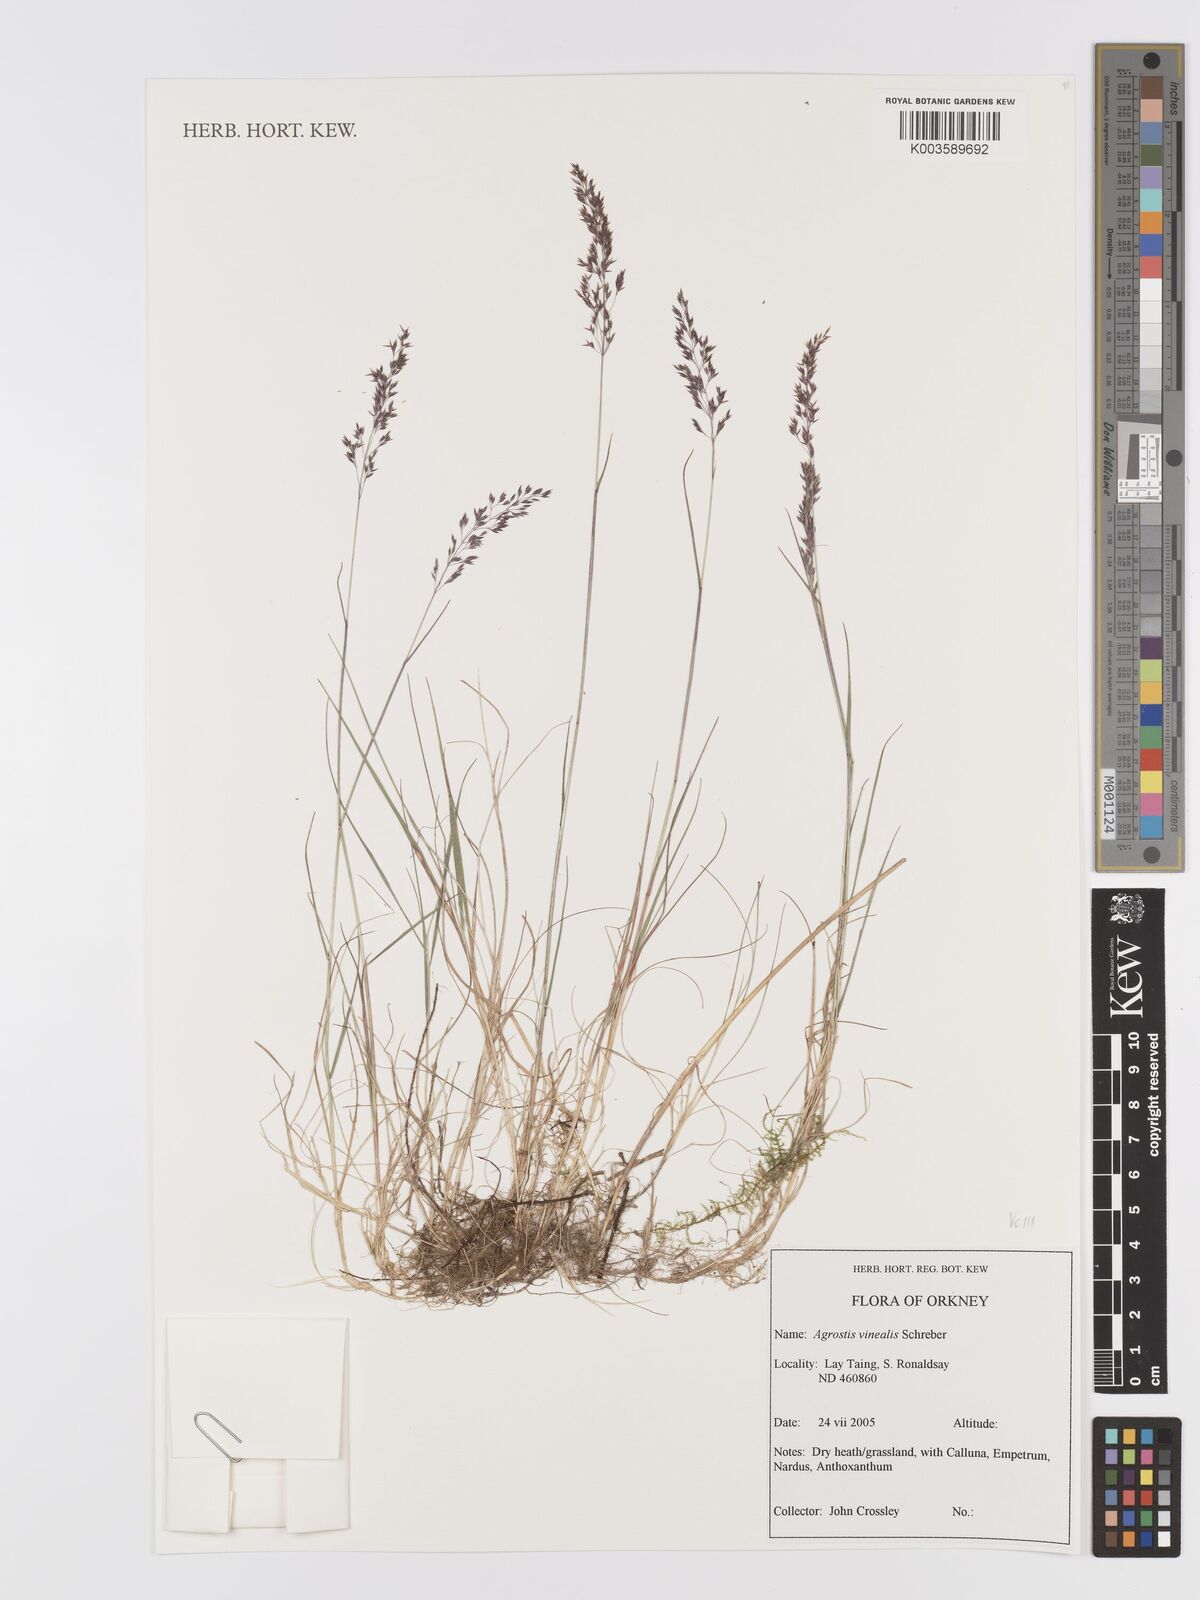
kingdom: Plantae
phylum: Tracheophyta
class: Liliopsida
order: Poales
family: Poaceae
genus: Agrostis
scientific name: Agrostis
